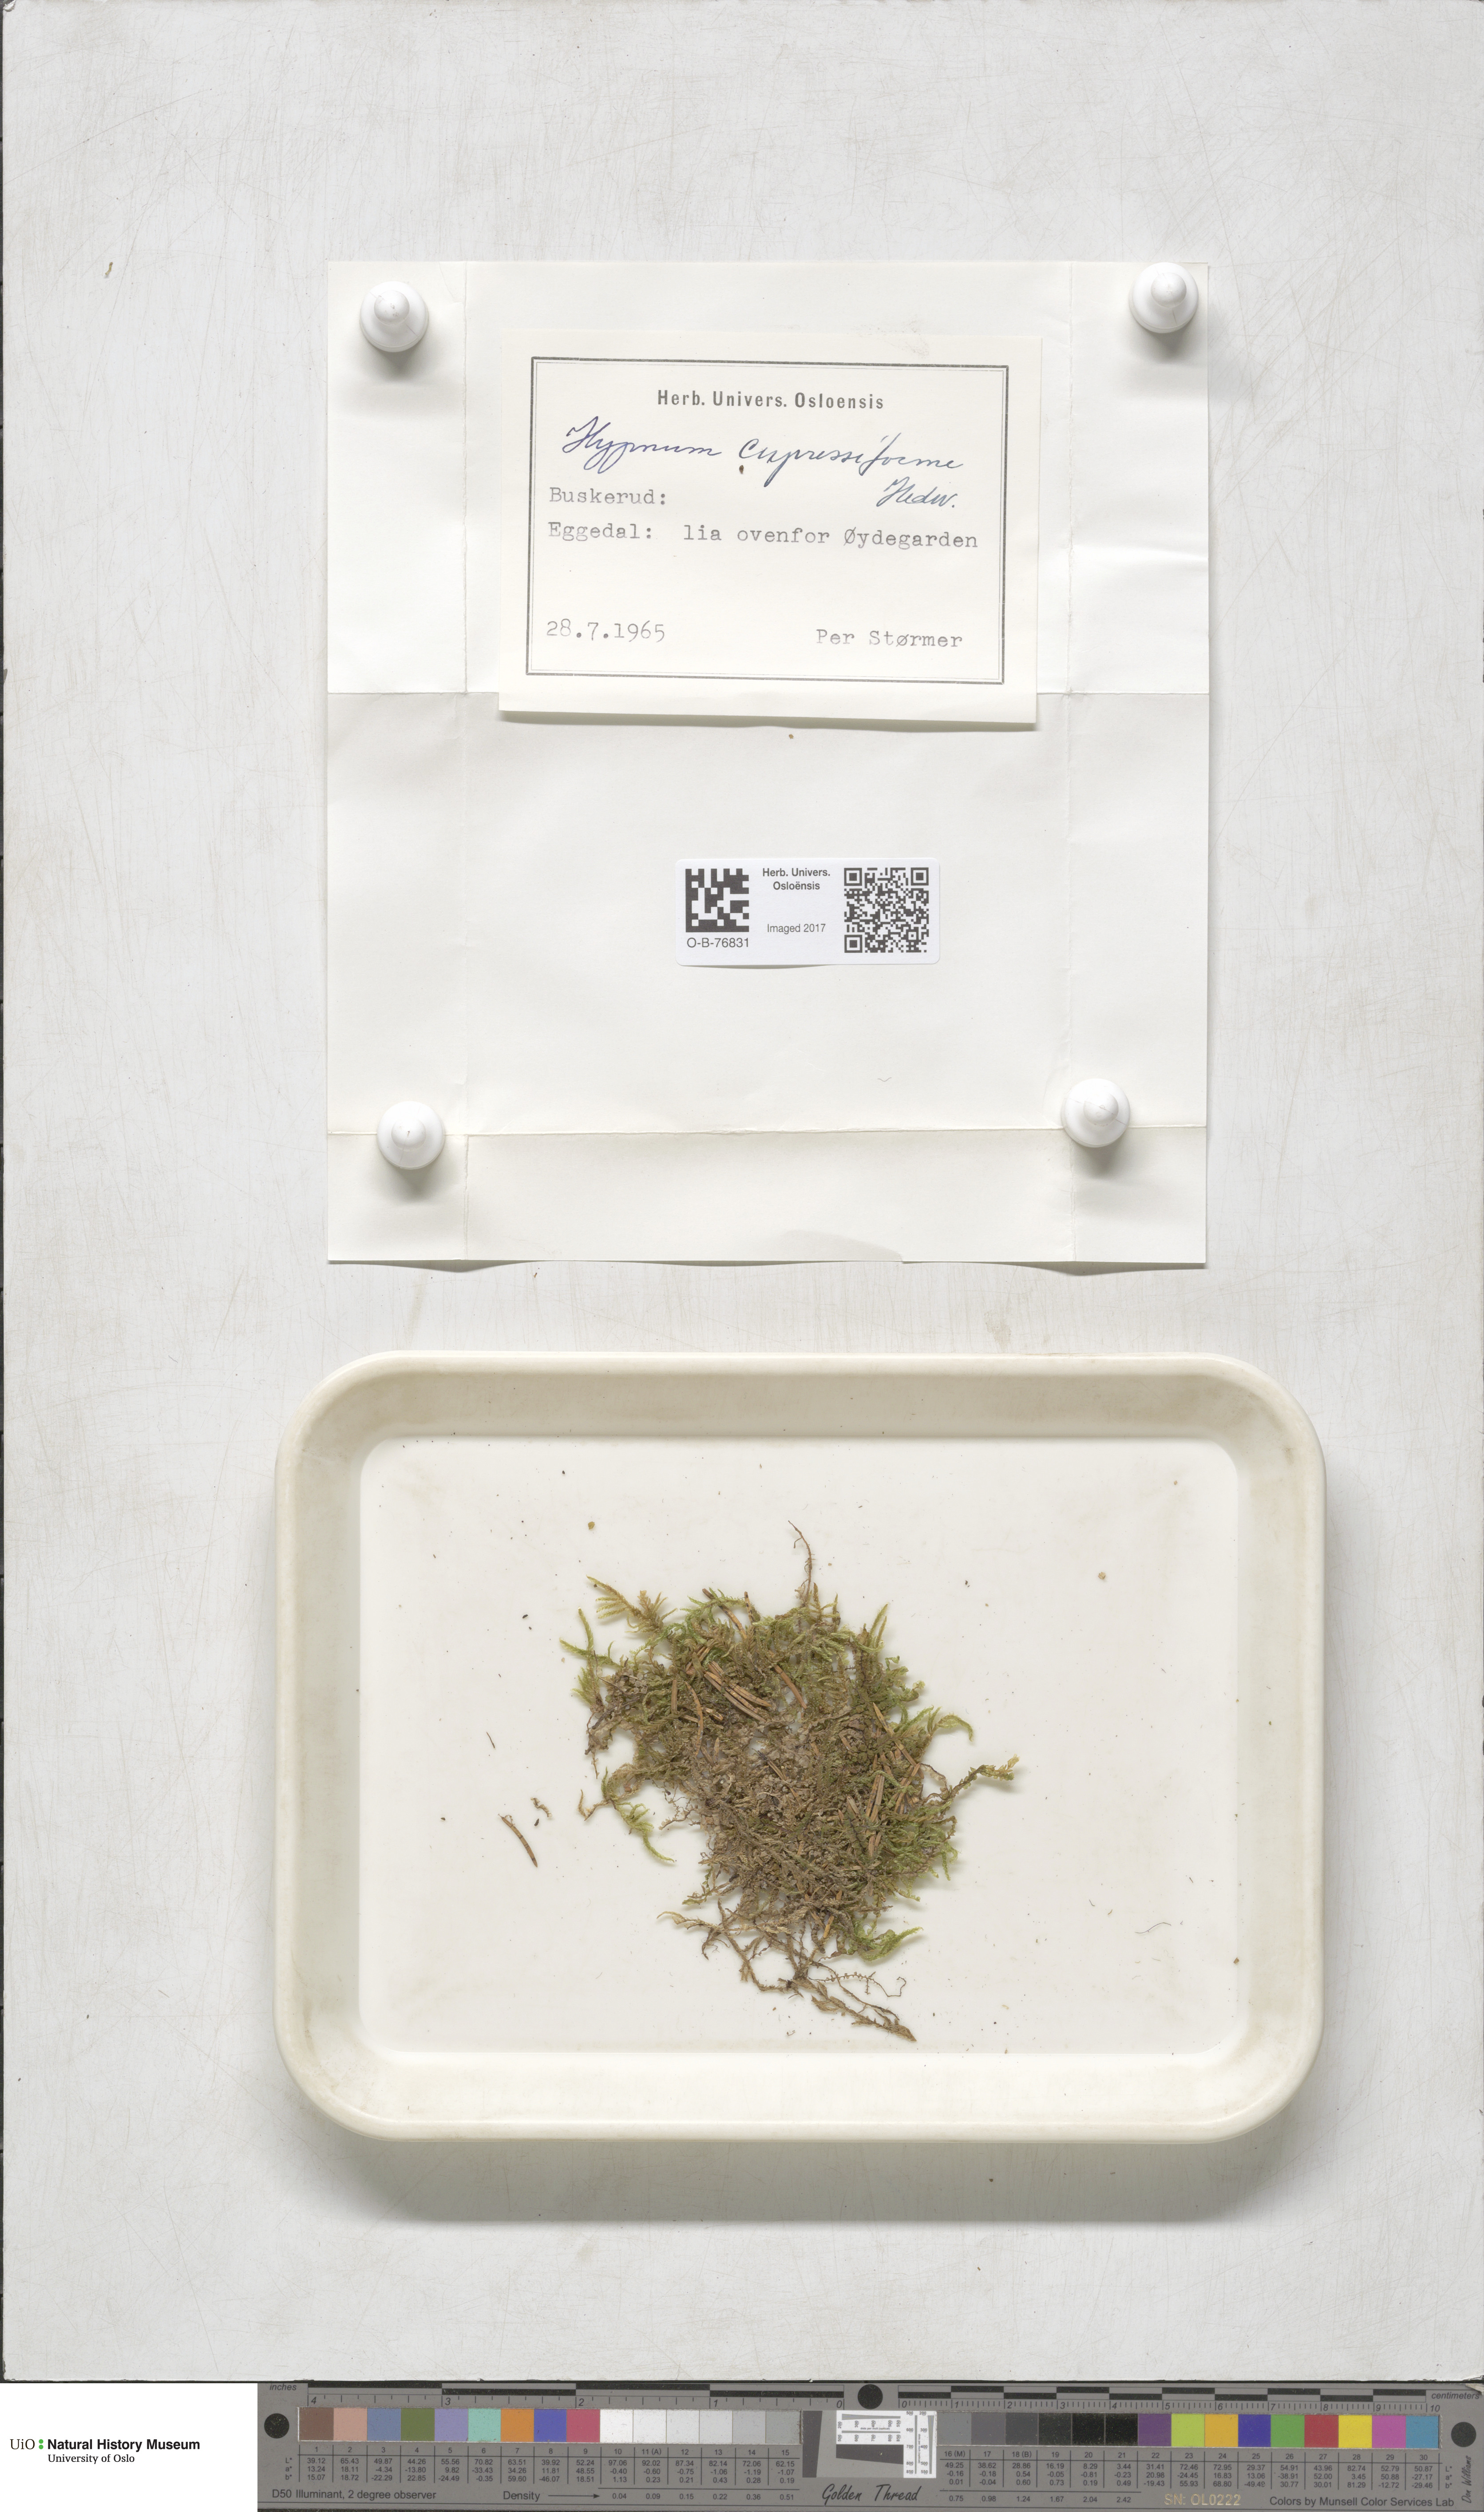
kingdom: Plantae
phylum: Bryophyta
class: Bryopsida
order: Hypnales
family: Hypnaceae
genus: Hypnum
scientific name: Hypnum cupressiforme
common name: Cypress-leaved plait-moss
